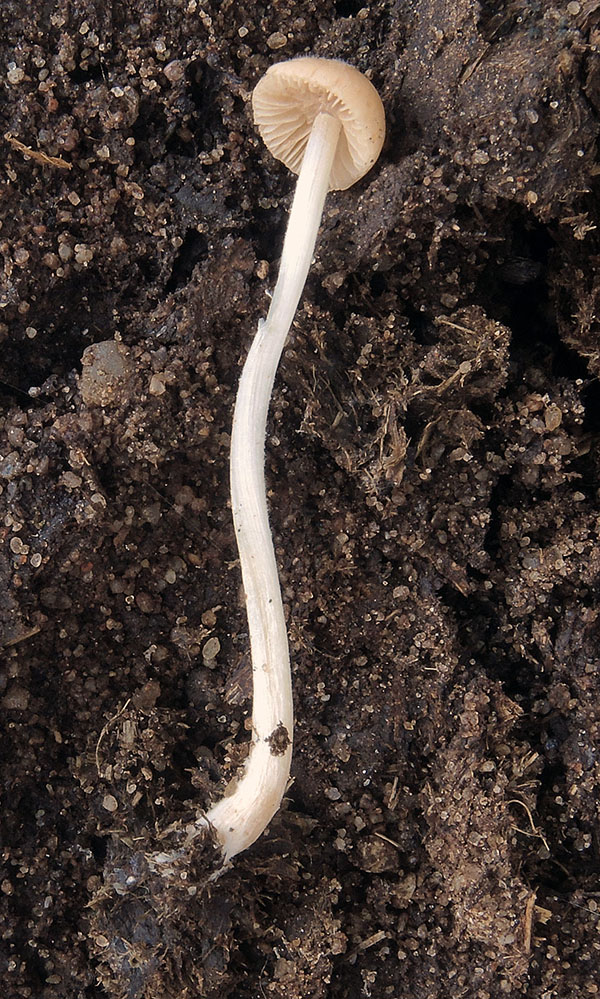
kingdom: Fungi
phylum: Basidiomycota
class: Agaricomycetes
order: Agaricales
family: Bolbitiaceae
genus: Conocybe
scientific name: Conocybe coprophila
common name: gødnings-dansehat
